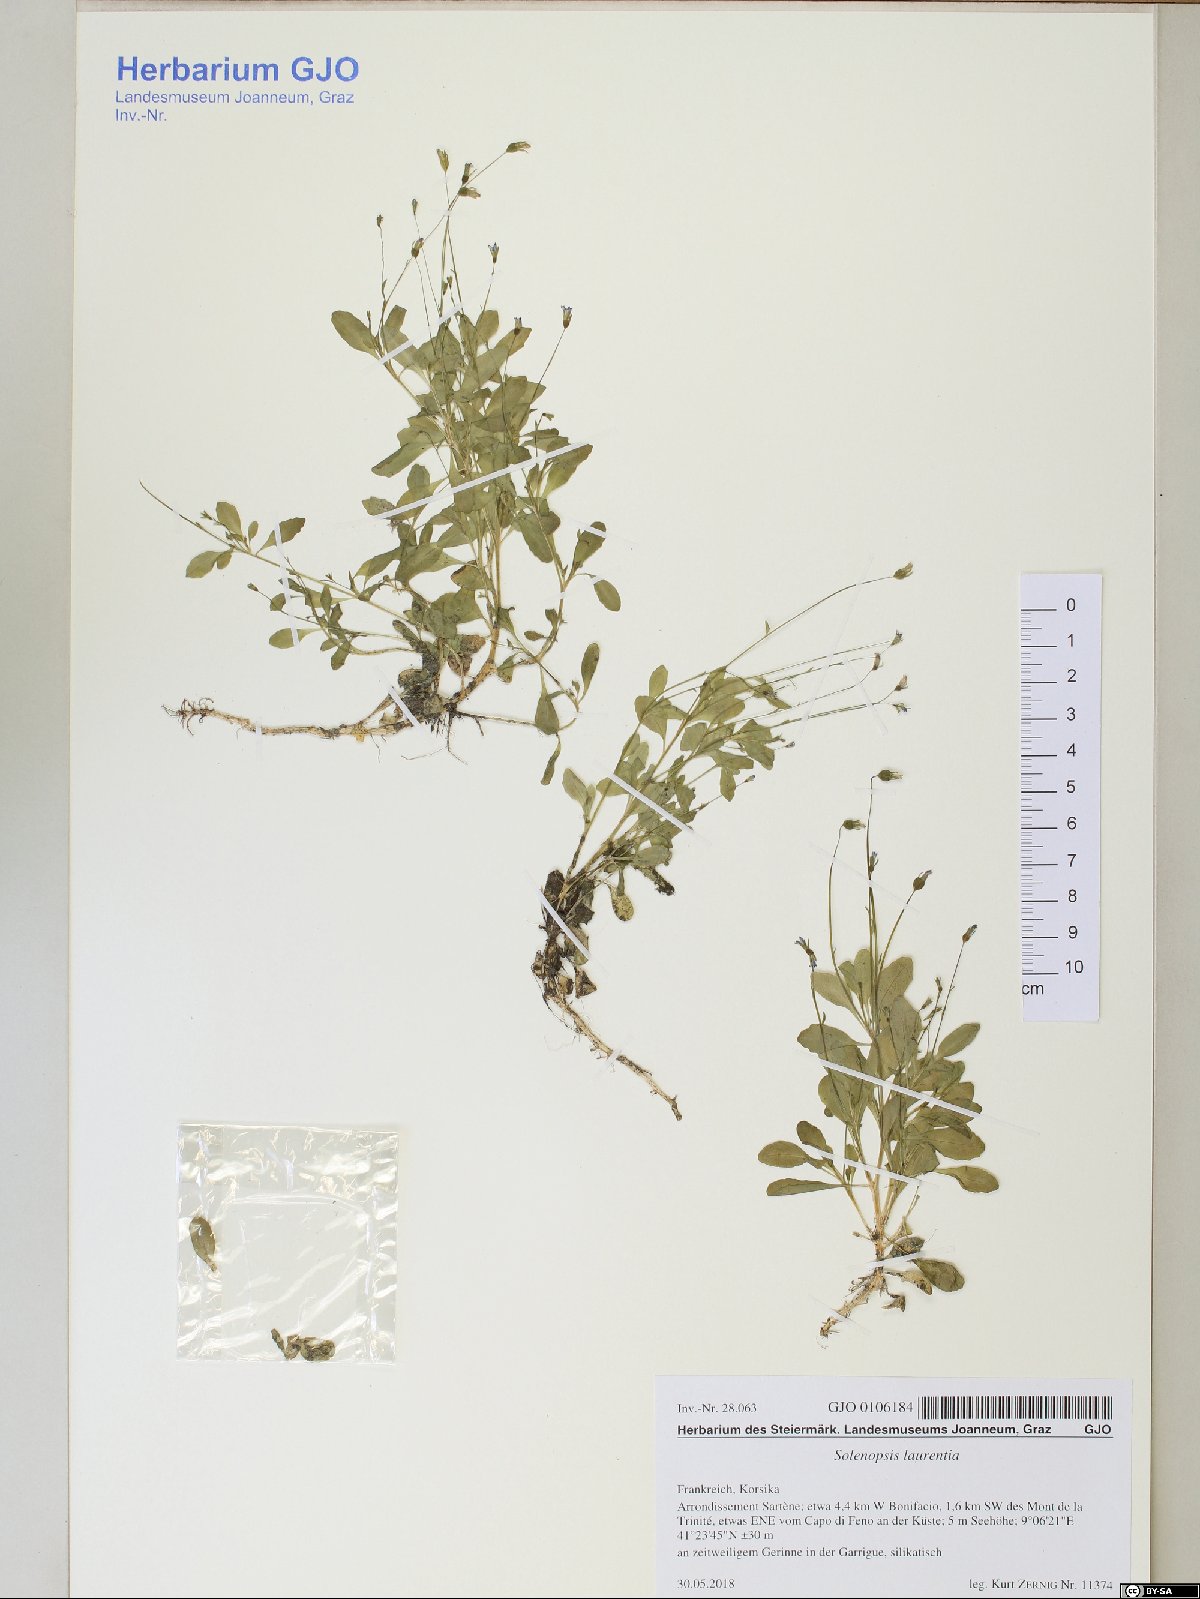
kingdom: Plantae
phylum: Tracheophyta
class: Magnoliopsida
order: Asterales
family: Campanulaceae
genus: Solenopsis
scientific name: Solenopsis laurentia
